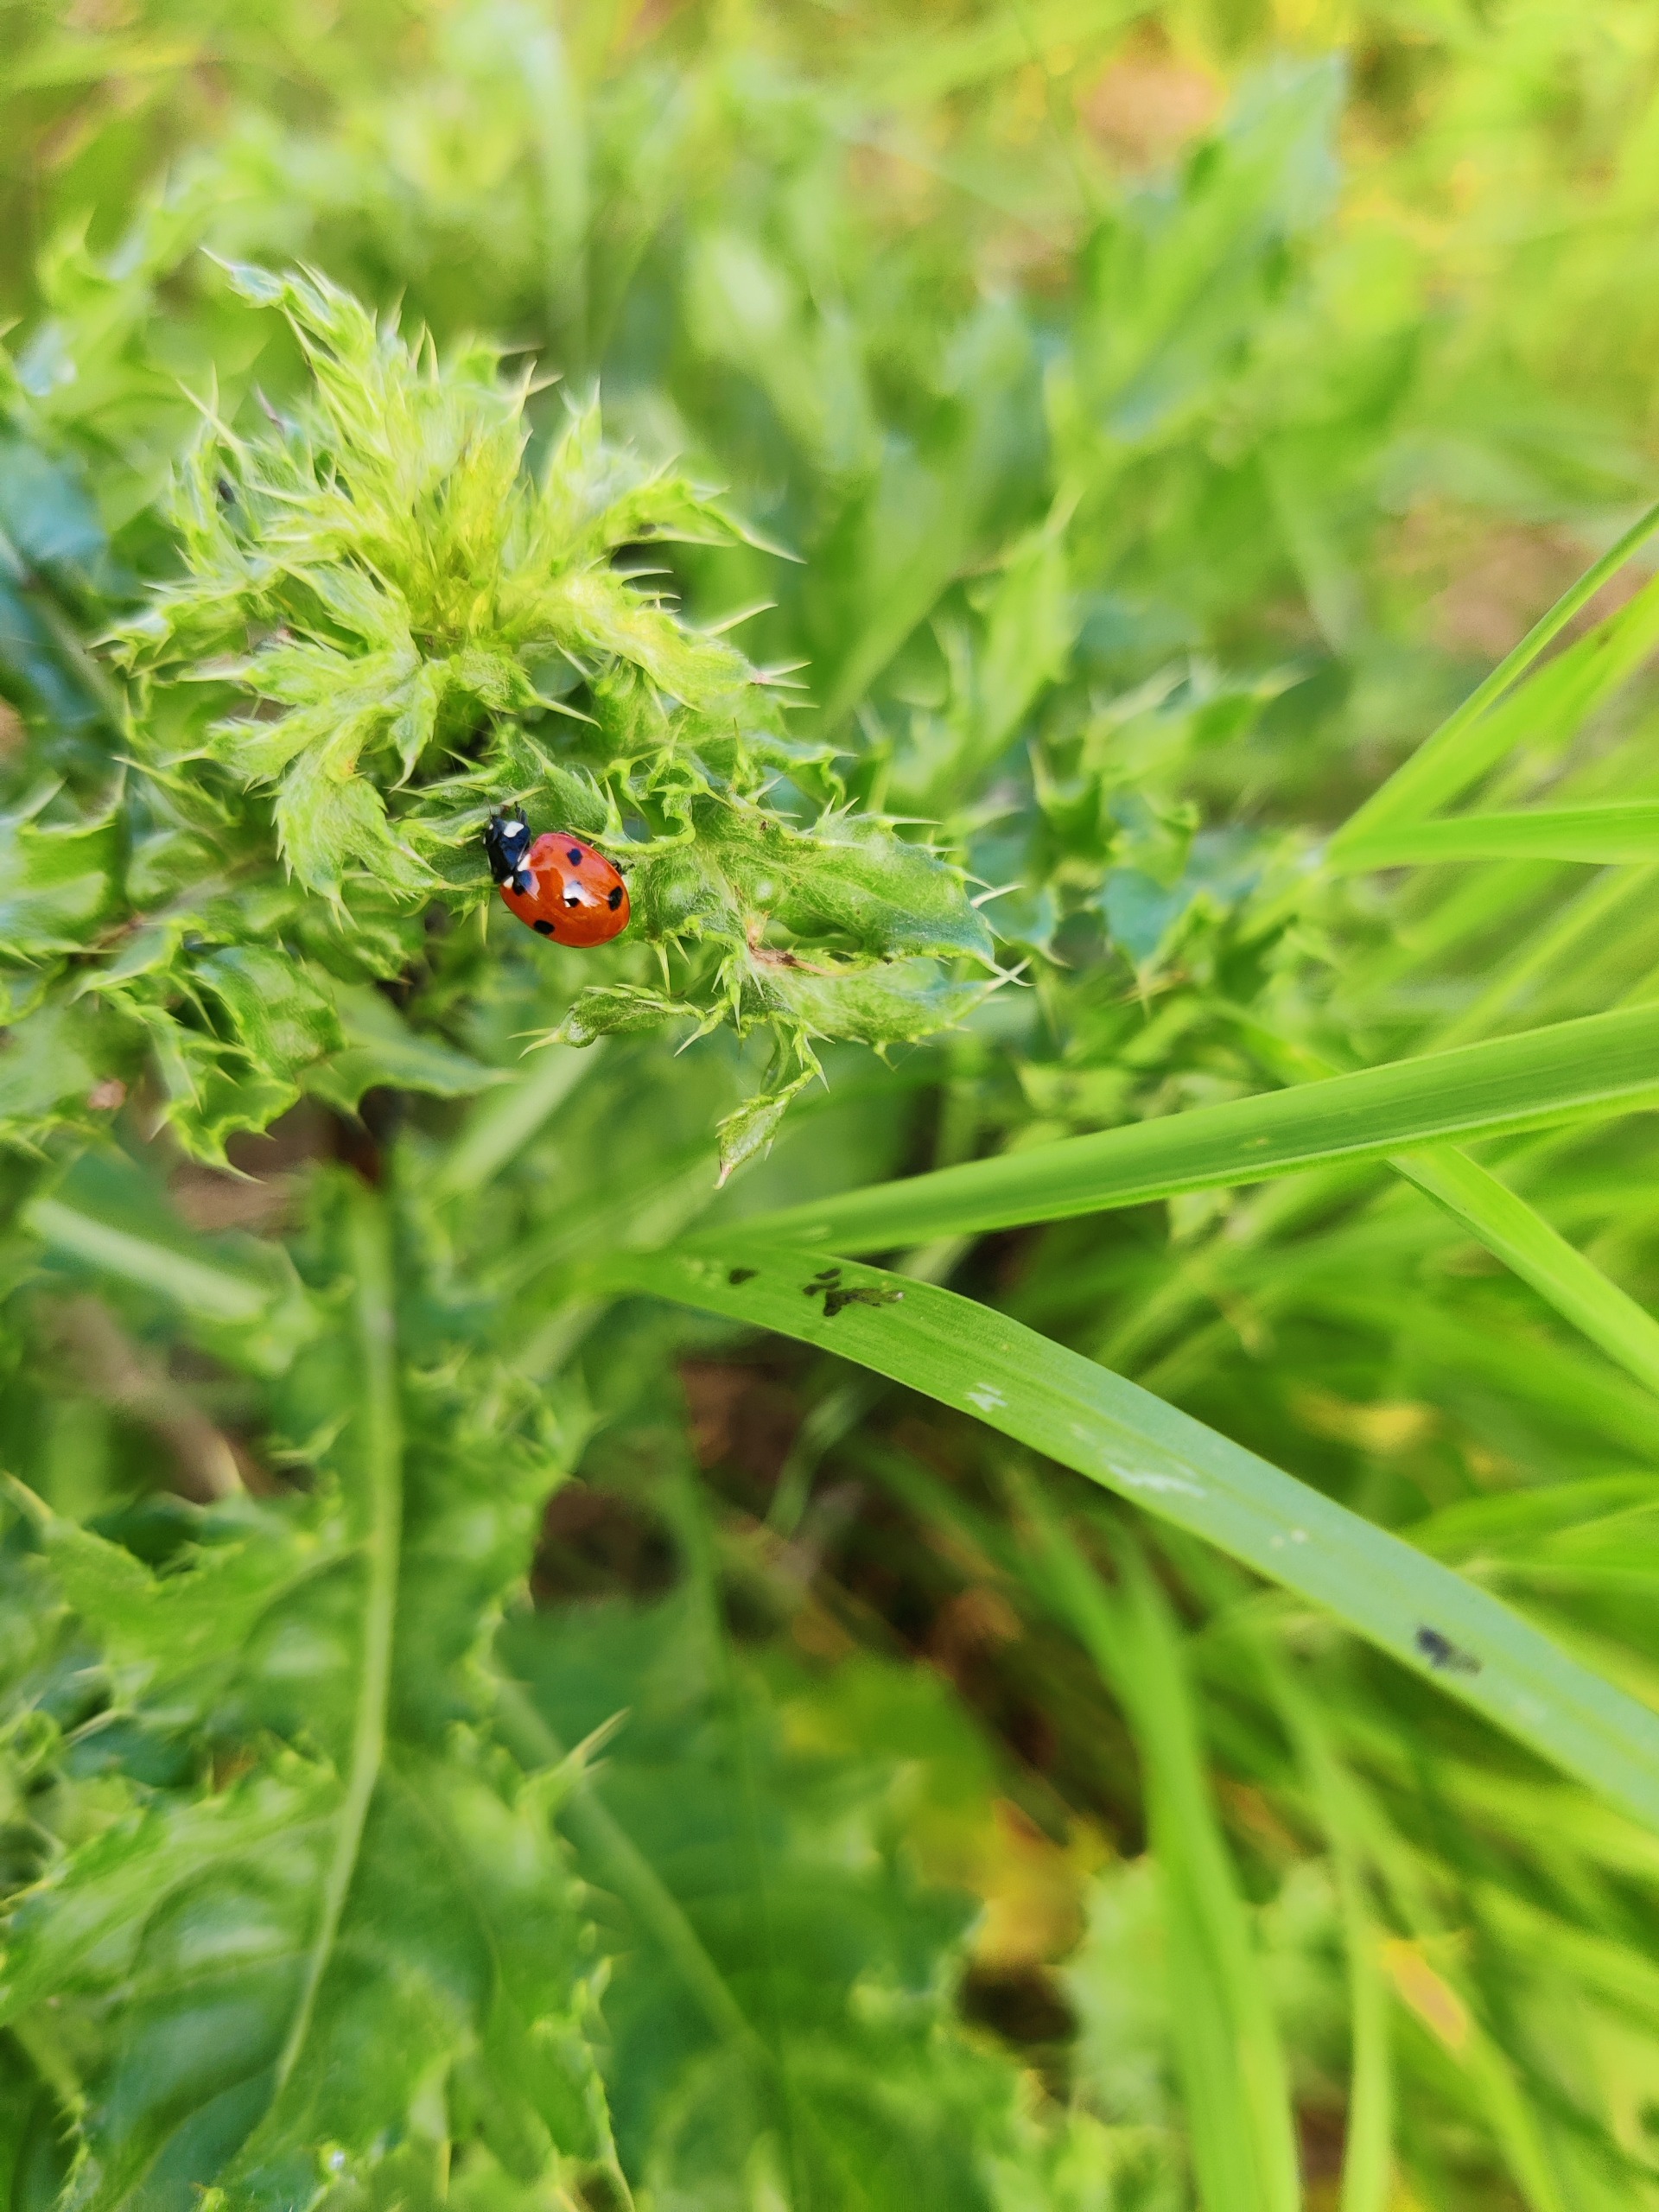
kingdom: Animalia
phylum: Arthropoda
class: Insecta
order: Coleoptera
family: Coccinellidae
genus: Coccinella
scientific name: Coccinella septempunctata
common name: Syvplettet mariehøne
